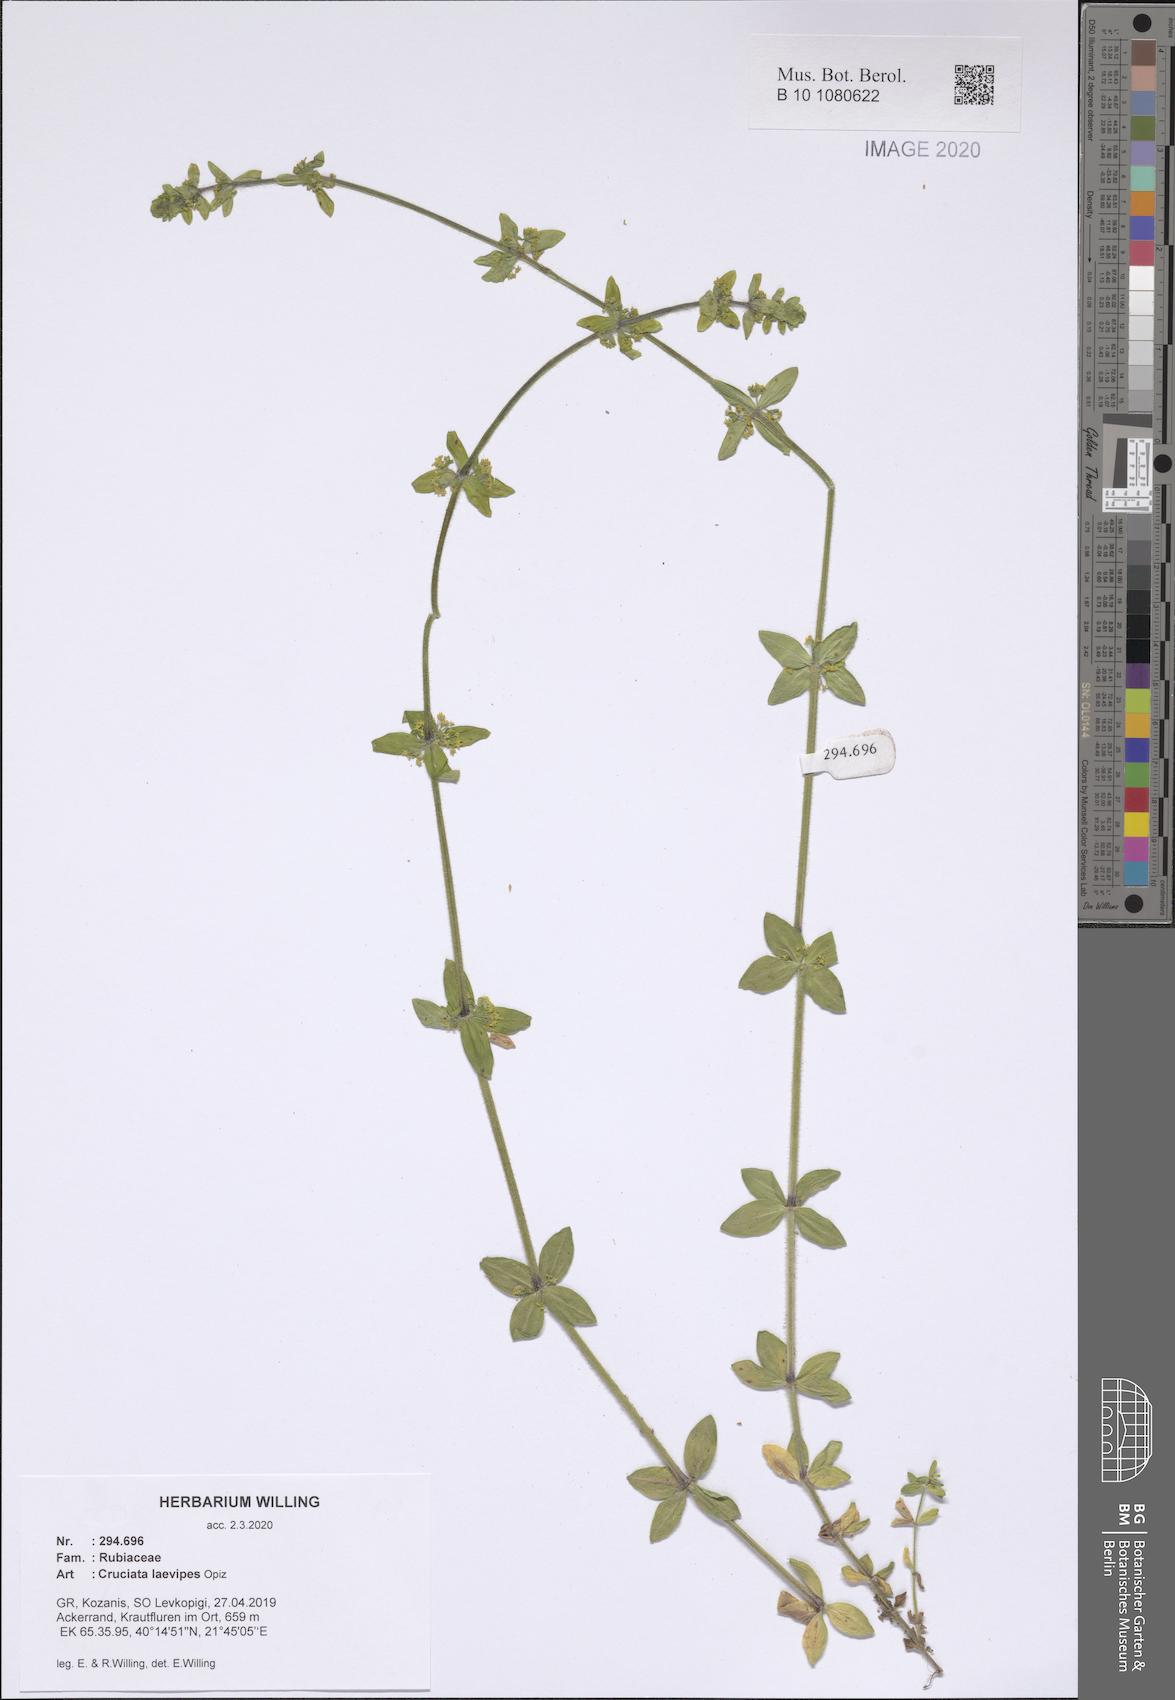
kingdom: Plantae
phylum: Tracheophyta
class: Magnoliopsida
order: Gentianales
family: Rubiaceae
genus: Cruciata
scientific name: Cruciata laevipes
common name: Crosswort
